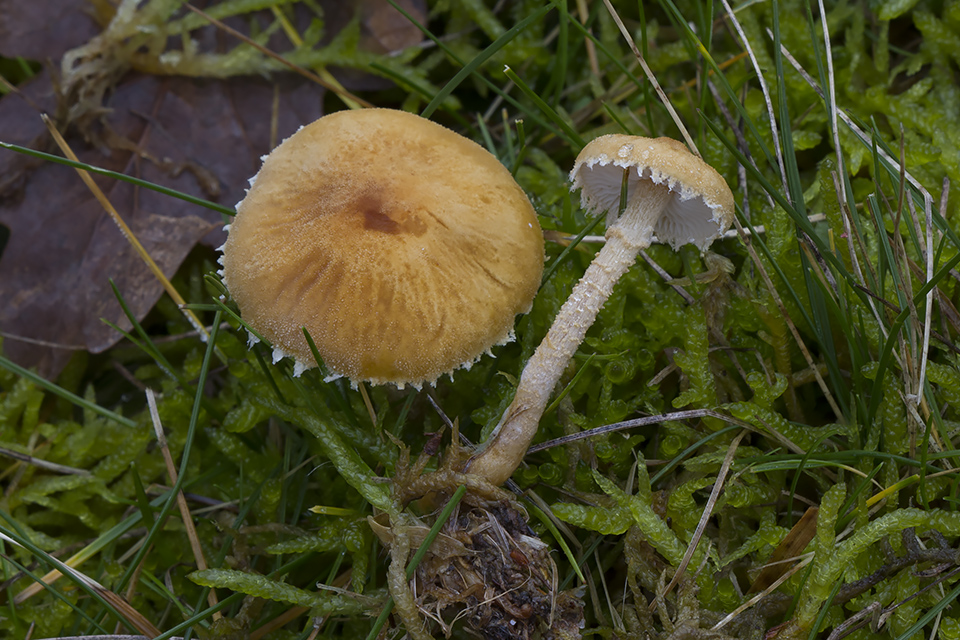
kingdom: Fungi
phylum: Basidiomycota
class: Agaricomycetes
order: Agaricales
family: Tricholomataceae
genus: Cystoderma
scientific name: Cystoderma amianthinum
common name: okkergul grynhat
